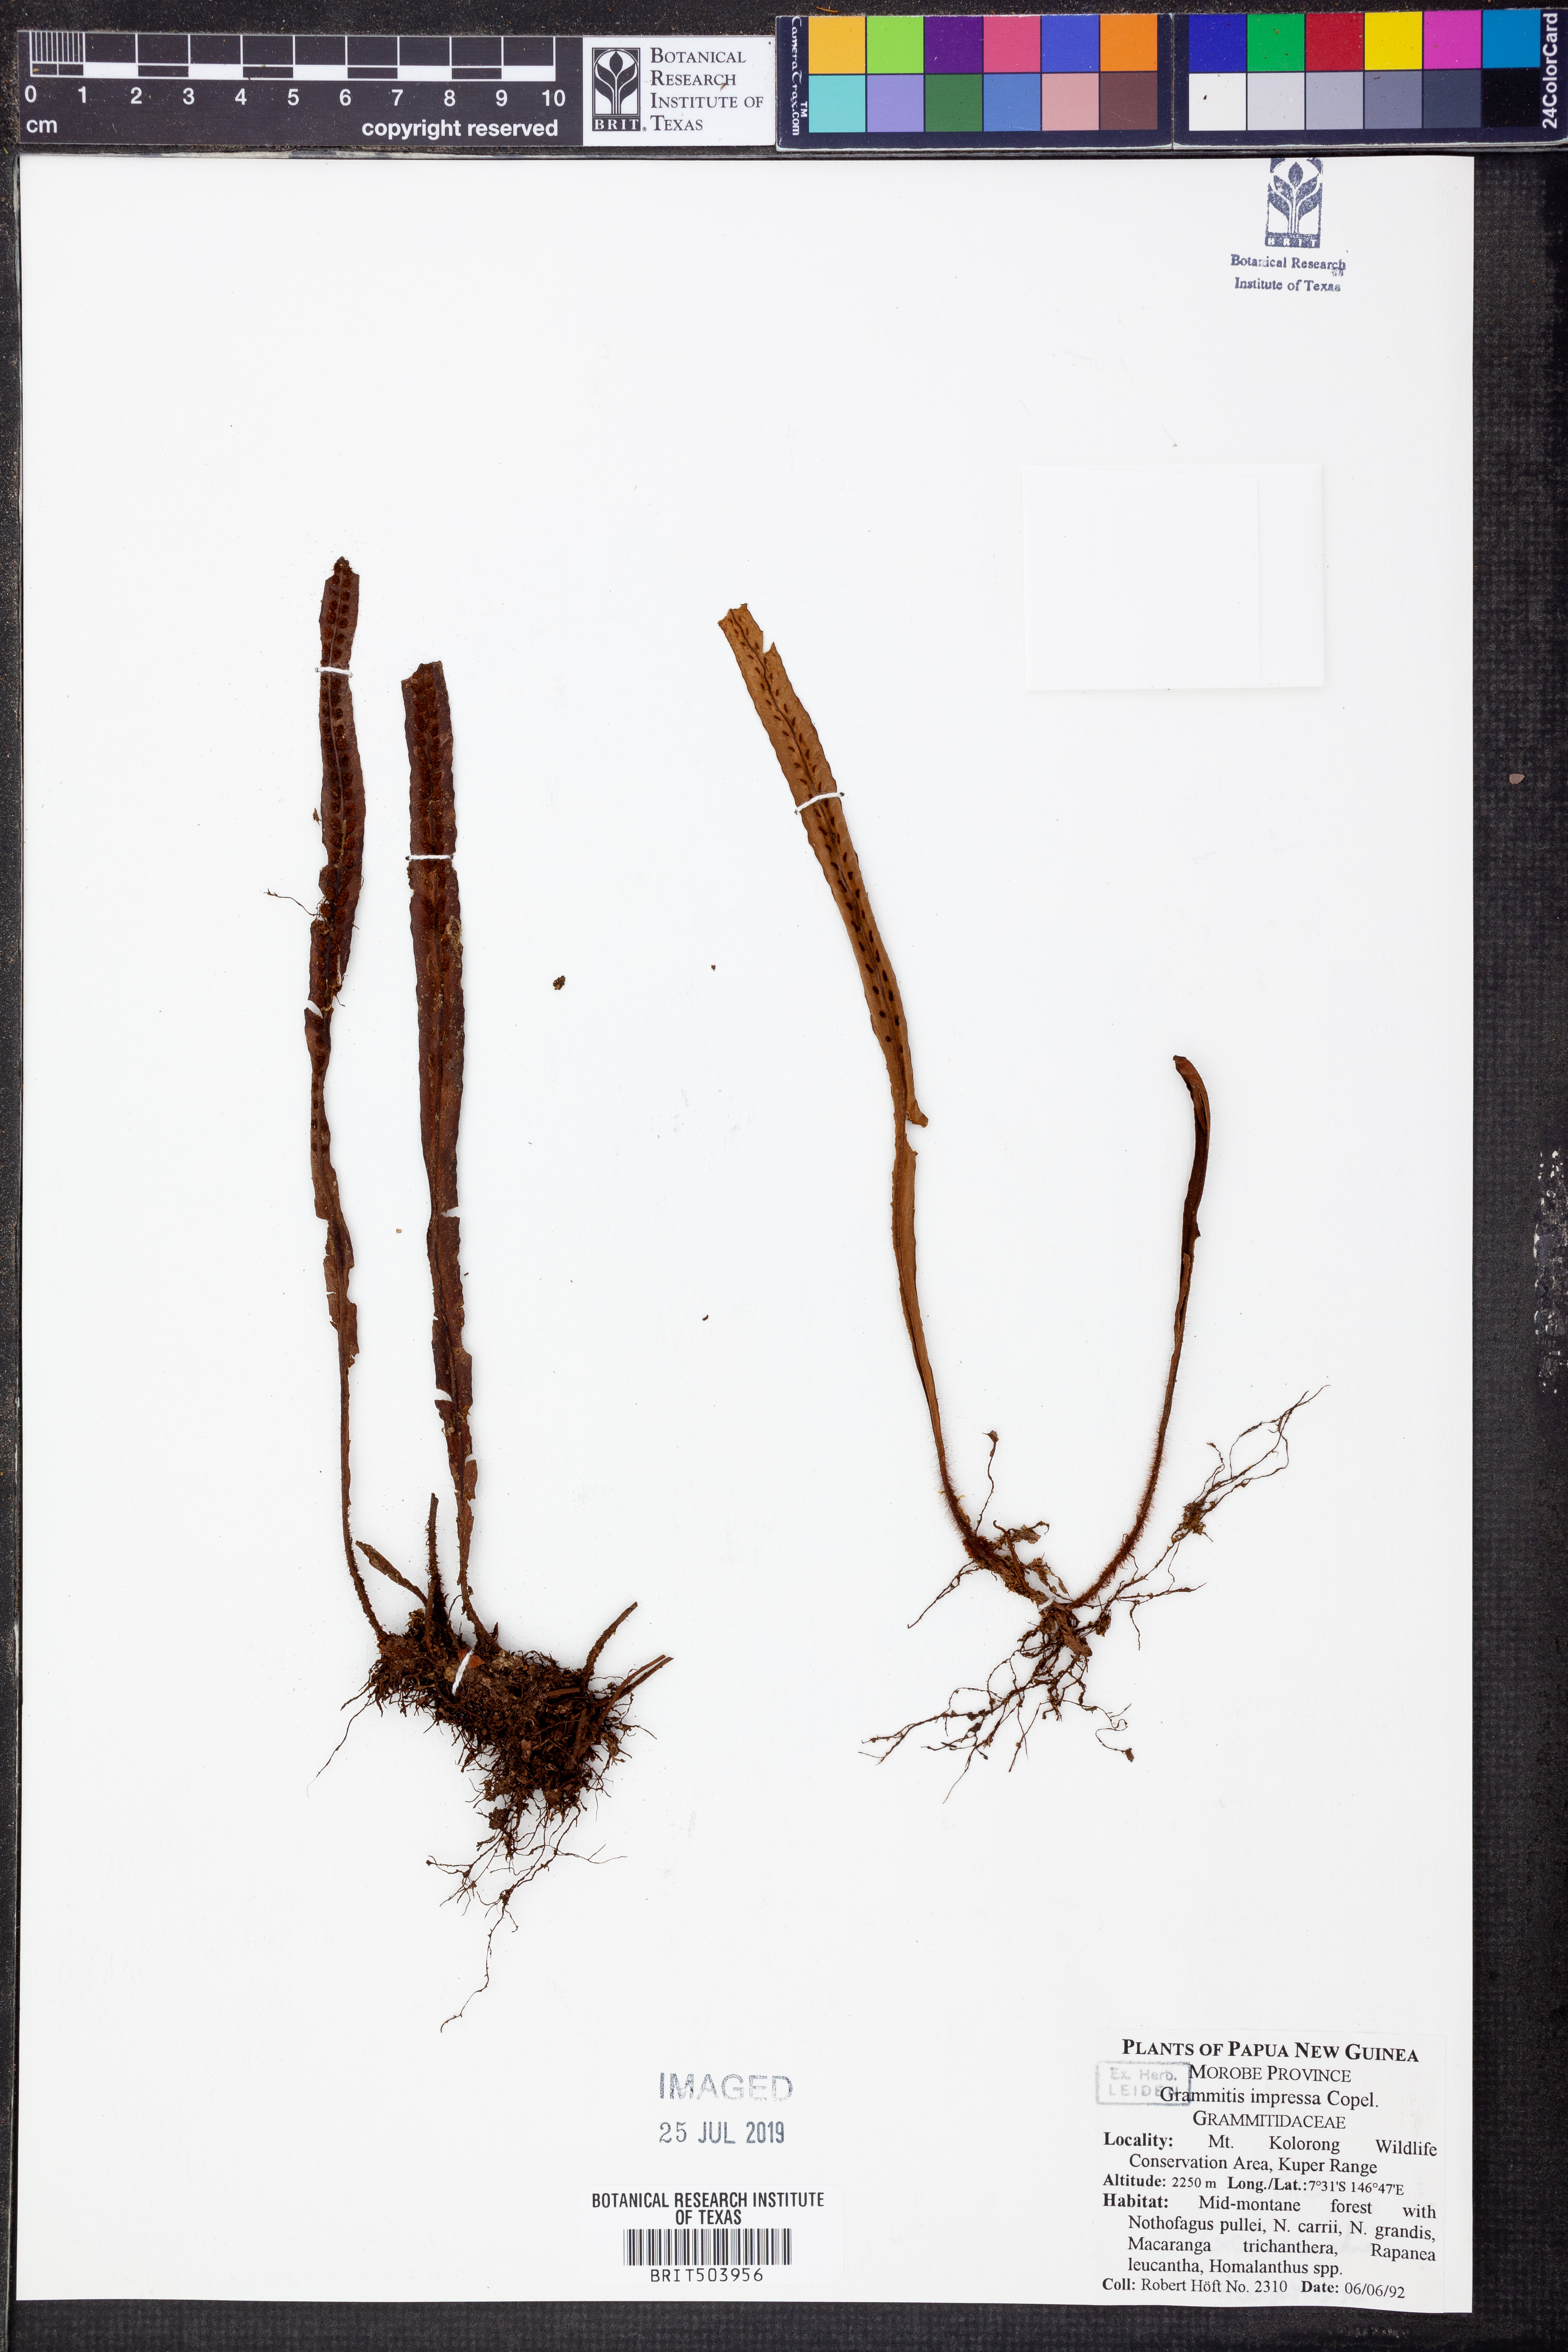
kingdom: Plantae
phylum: Tracheophyta
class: Polypodiopsida
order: Polypodiales
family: Polypodiaceae
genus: Oreogrammitis
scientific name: Oreogrammitis insularis
